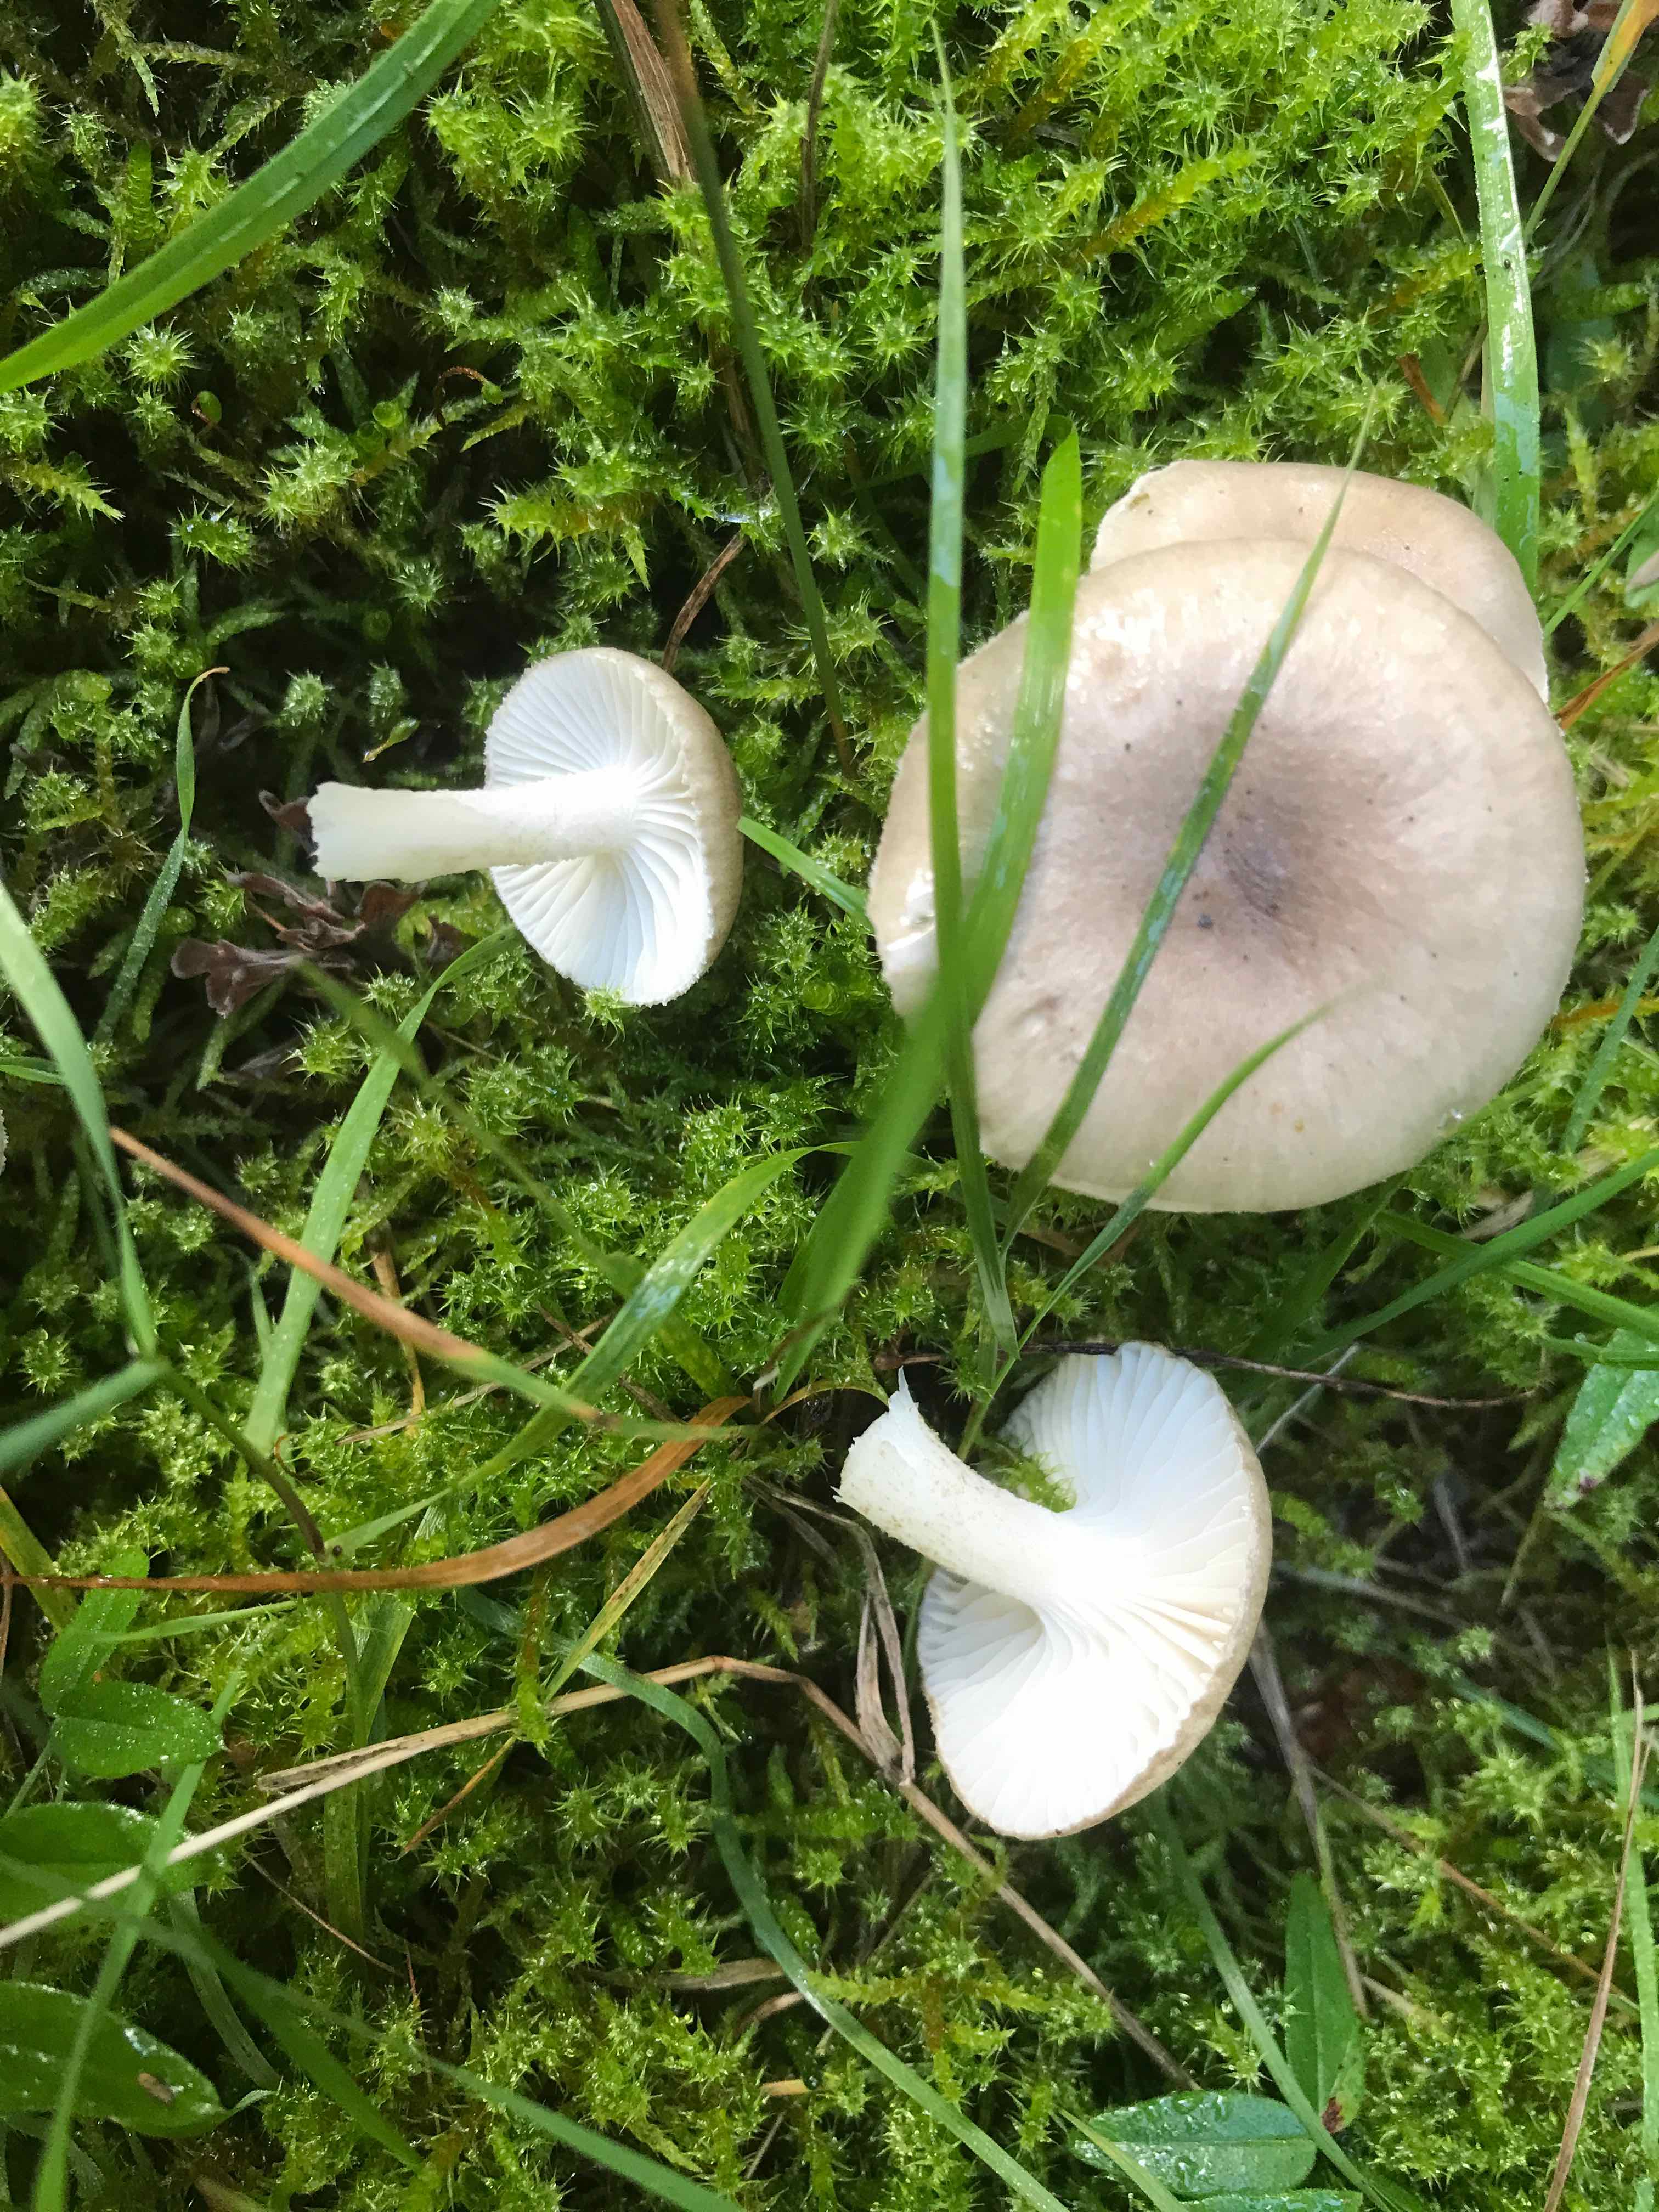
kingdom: Fungi
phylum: Basidiomycota
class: Agaricomycetes
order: Agaricales
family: Hygrophoraceae
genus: Hygrophorus
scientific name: Hygrophorus pustulatus
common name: mørkprikket sneglehat
